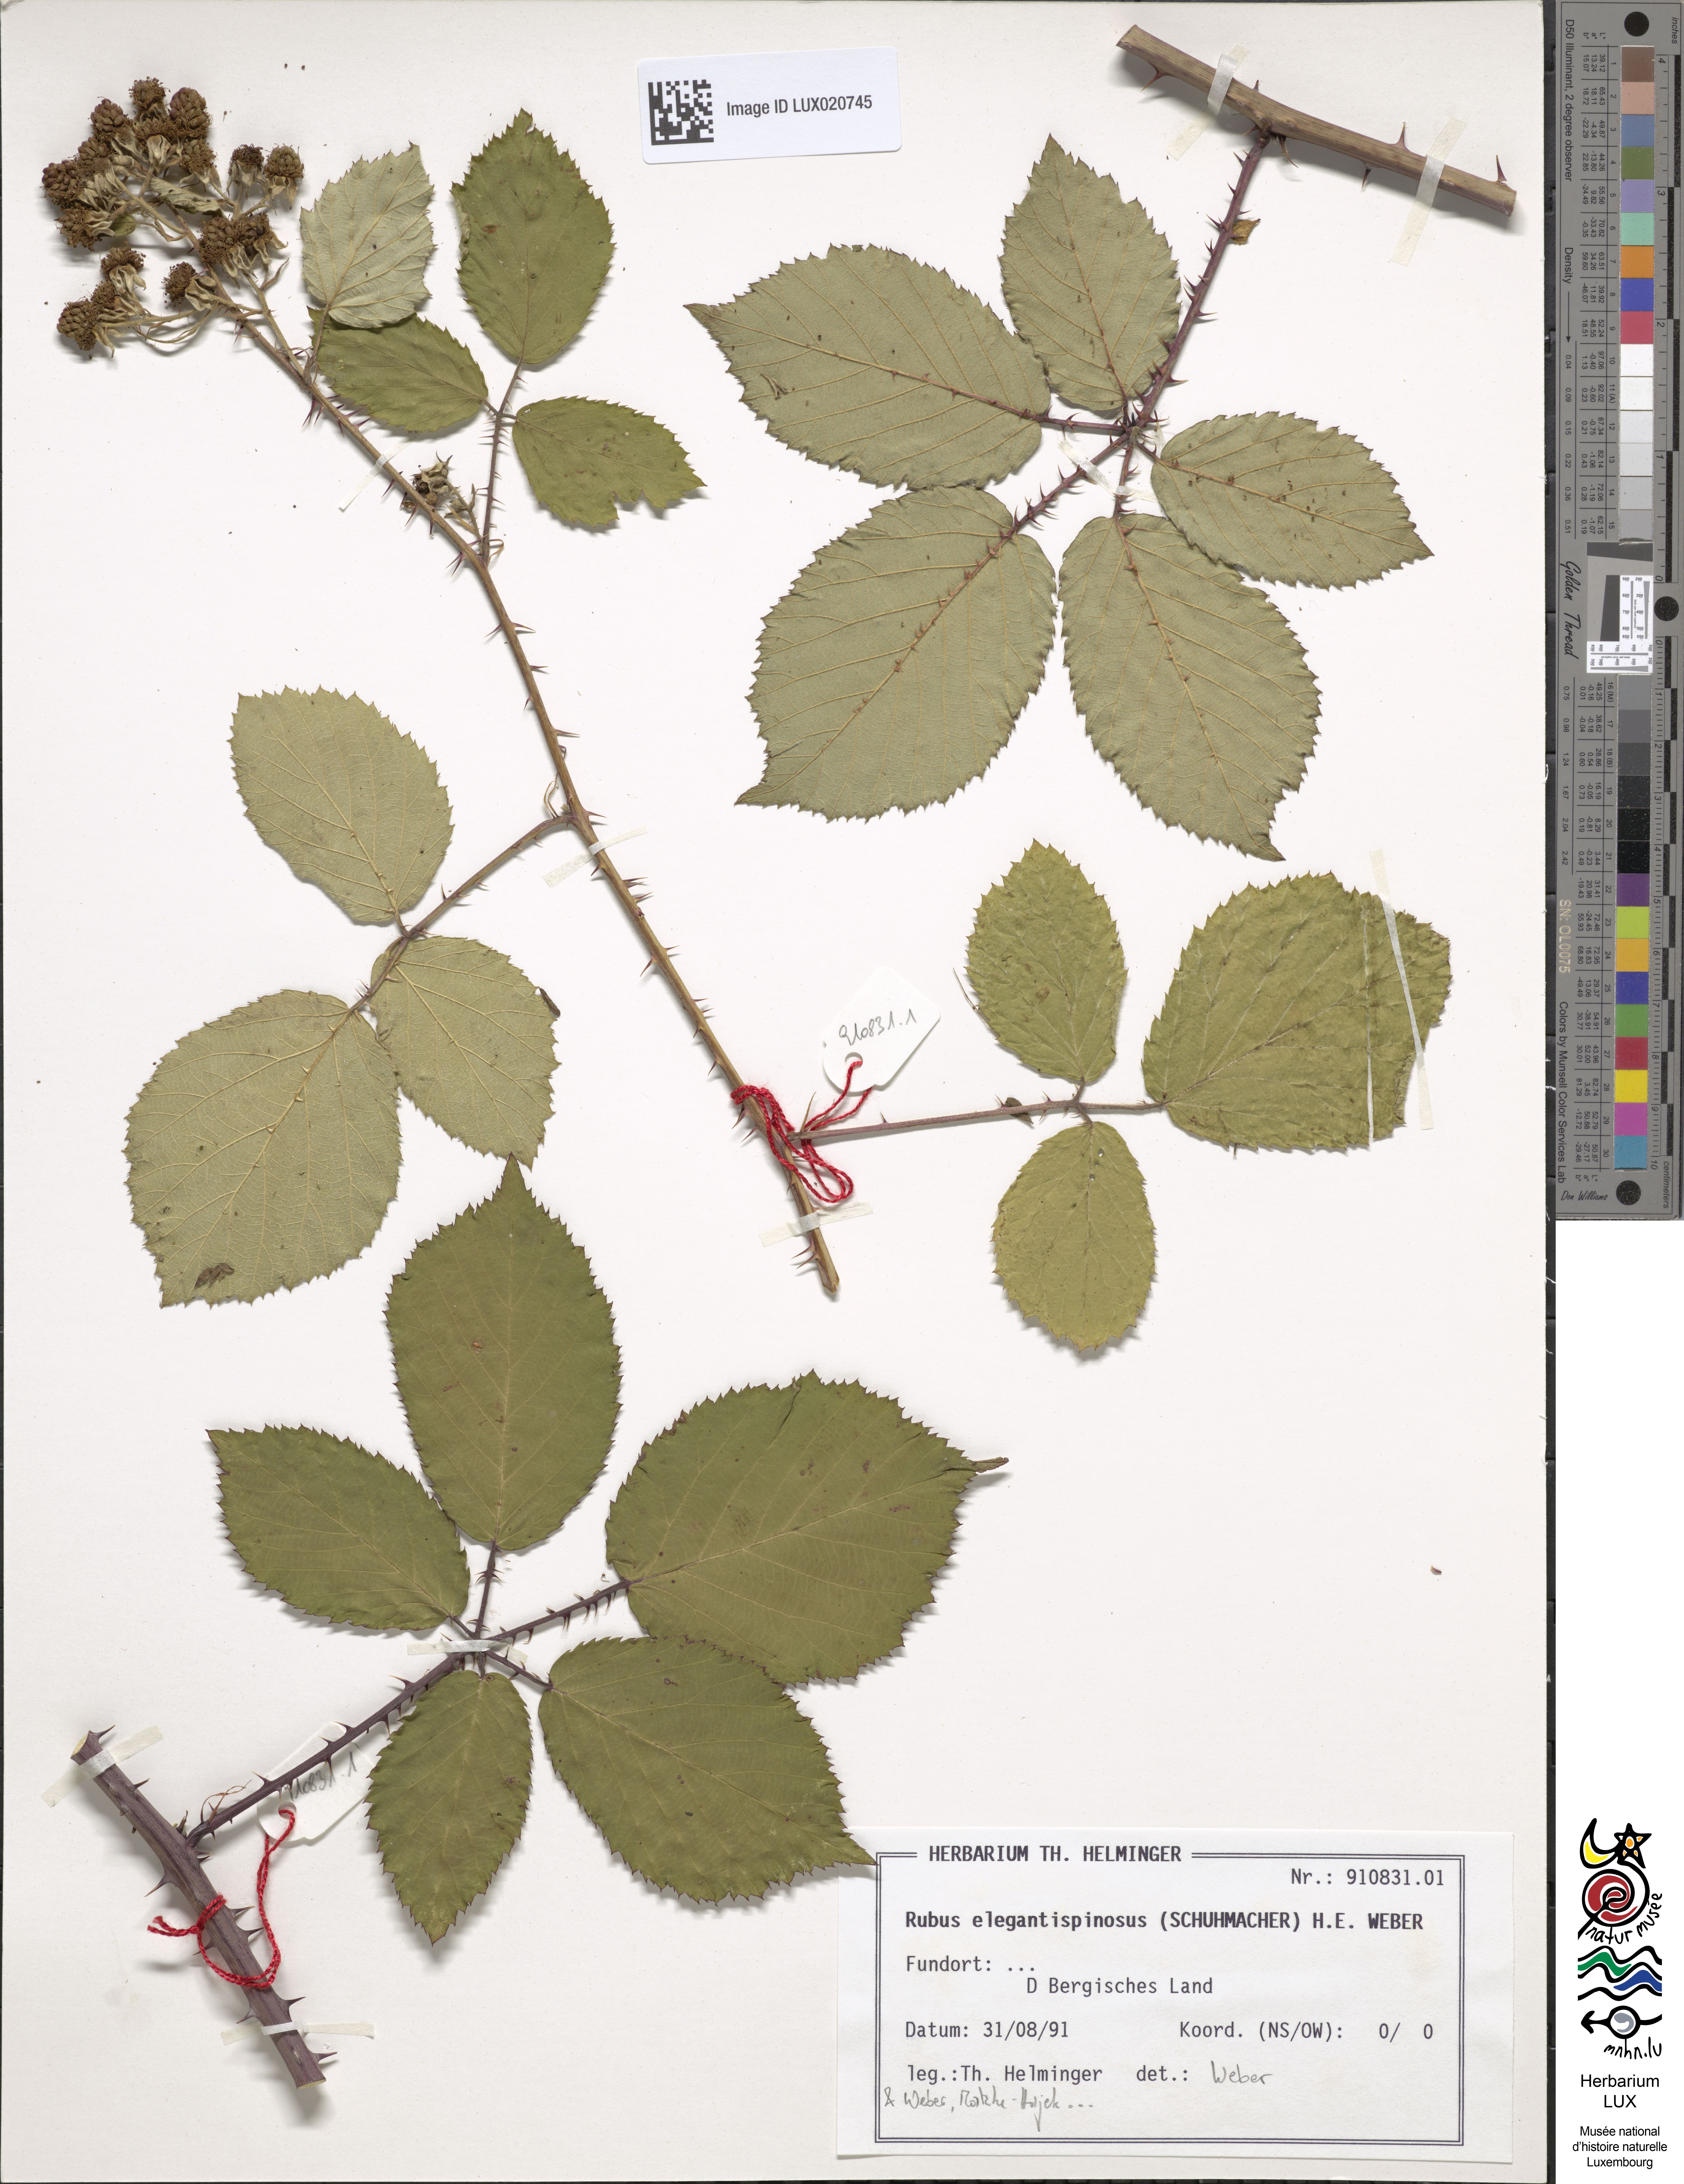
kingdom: Plantae
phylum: Tracheophyta
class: Magnoliopsida
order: Rosales
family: Rosaceae
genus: Rubus
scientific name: Rubus elegantispinosus
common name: Slender spined bramble
